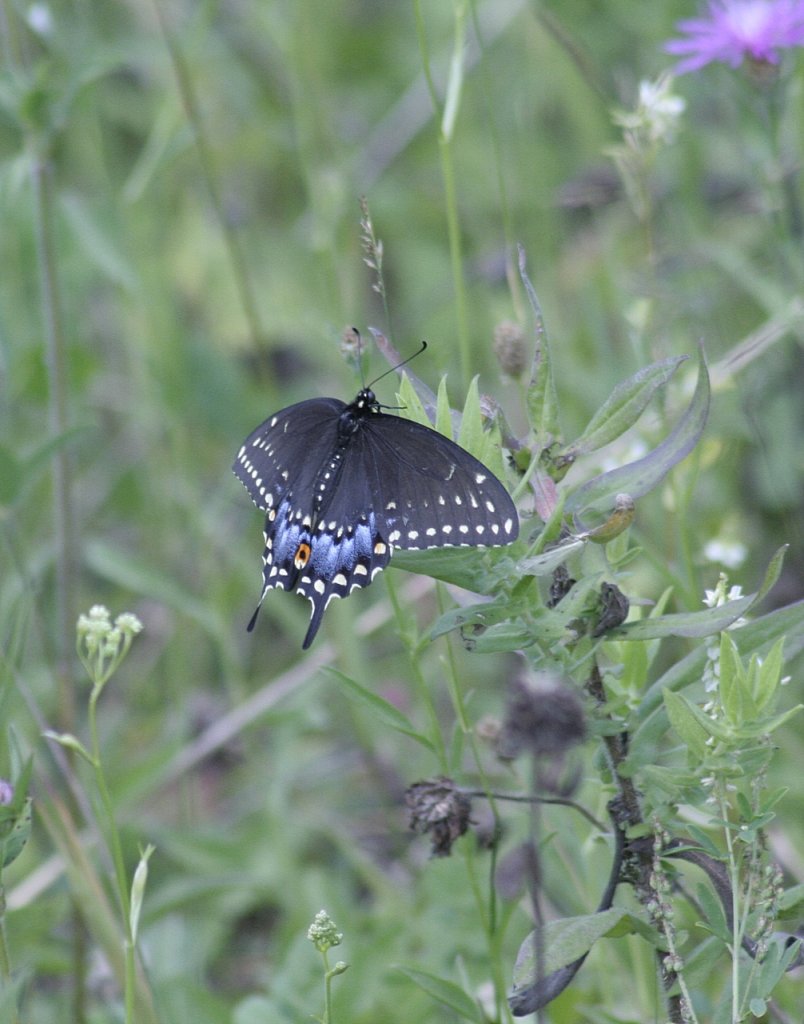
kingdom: Animalia
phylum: Arthropoda
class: Insecta
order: Lepidoptera
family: Papilionidae
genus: Papilio
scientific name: Papilio polyxenes
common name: Black Swallowtail
